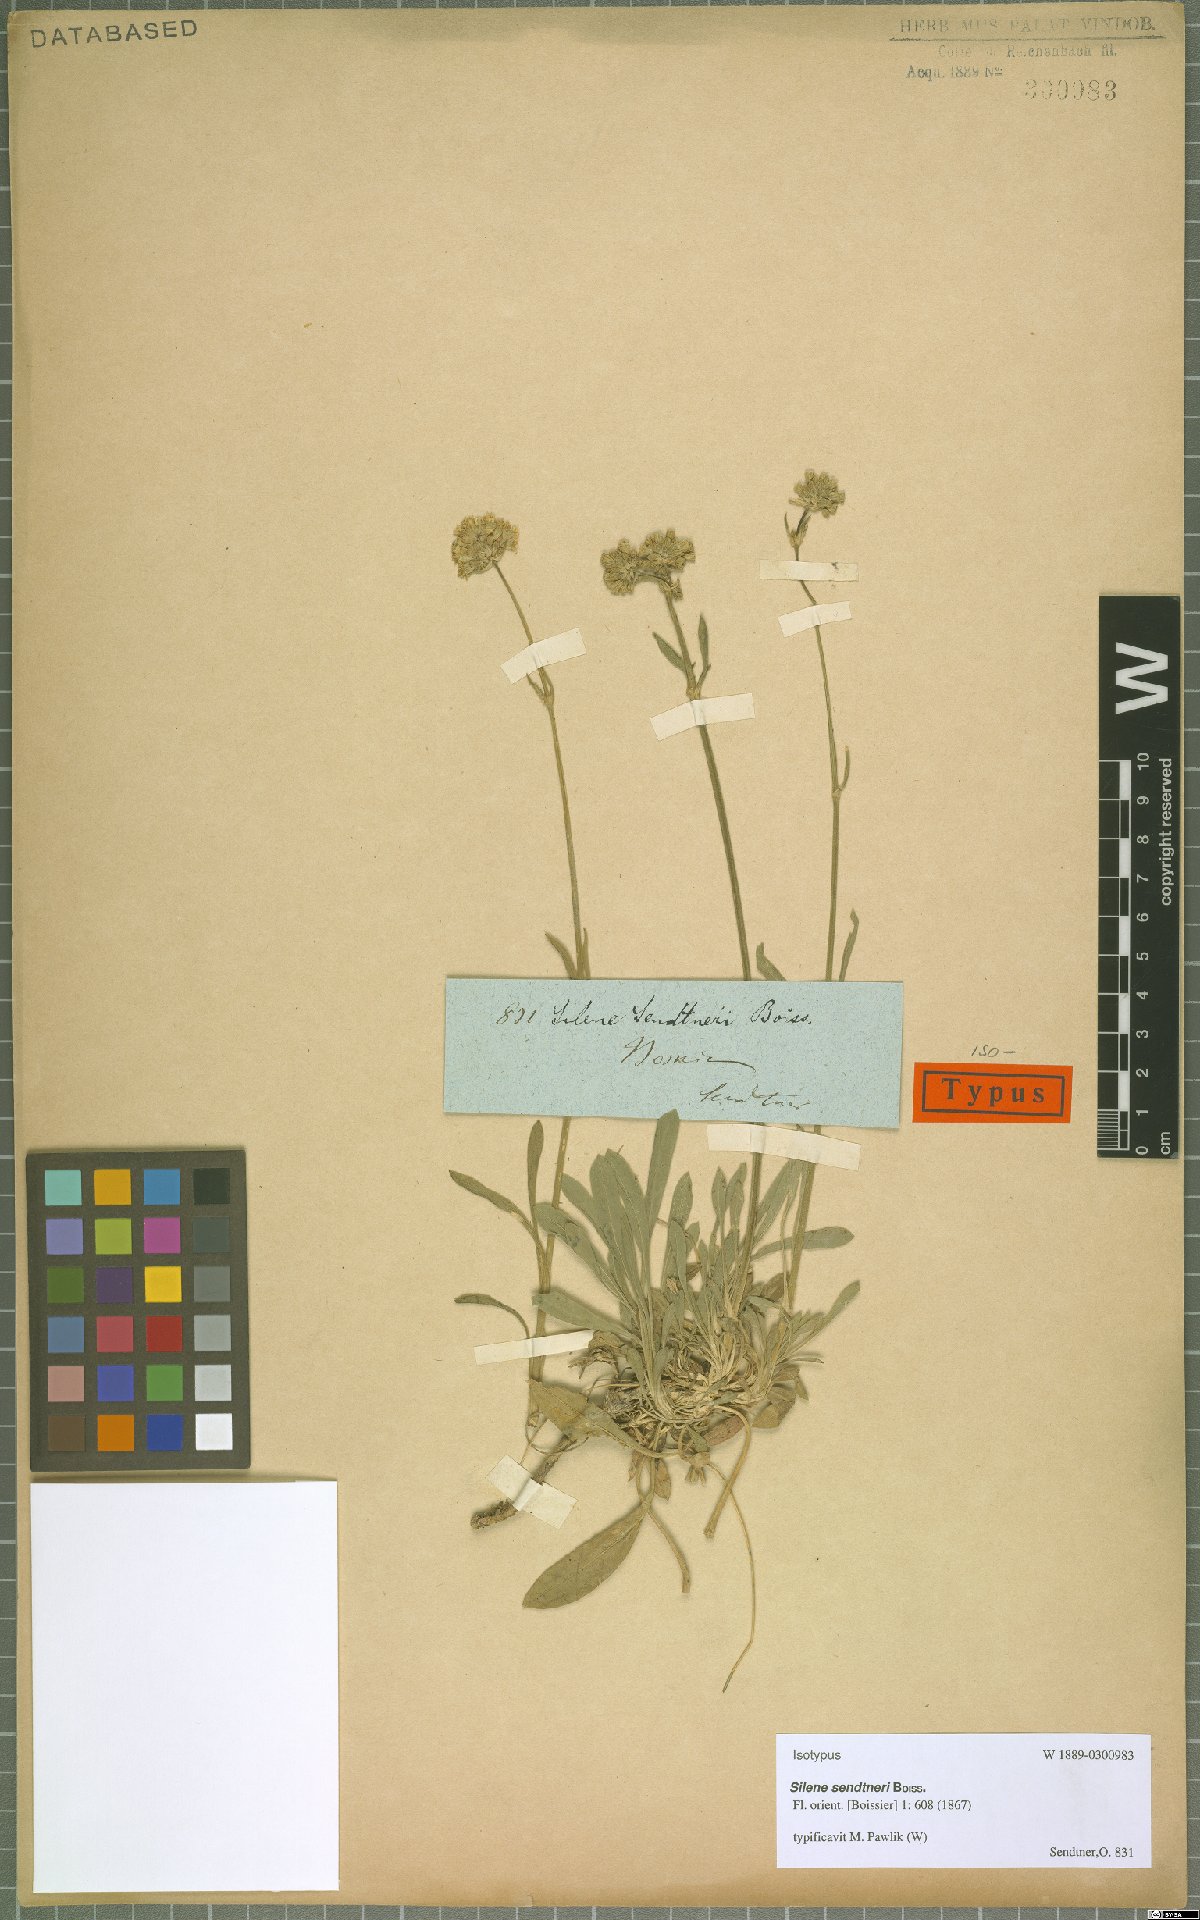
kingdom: Plantae
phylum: Tracheophyta
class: Magnoliopsida
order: Caryophyllales
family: Caryophyllaceae
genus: Silene
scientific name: Silene sendtneri
